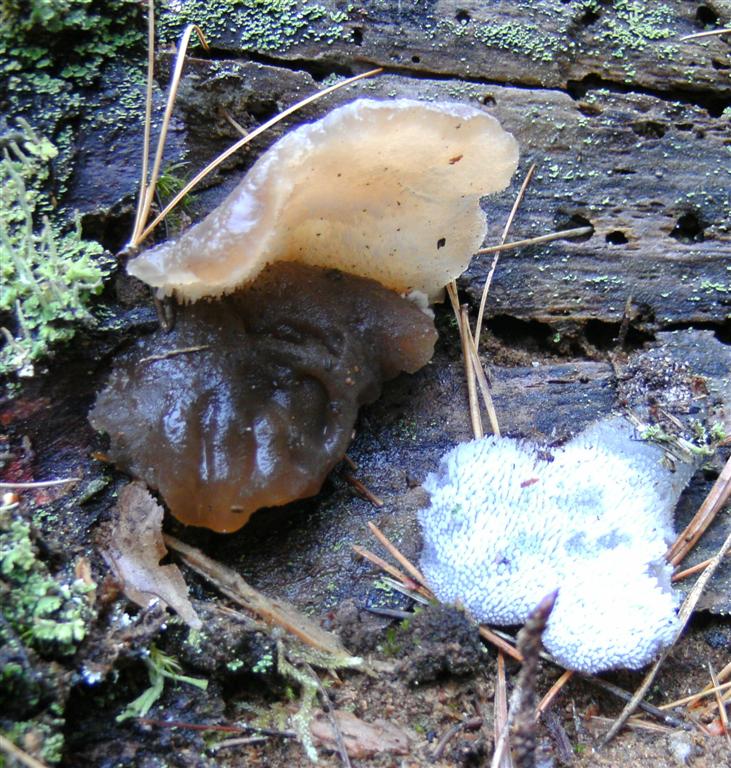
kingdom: Fungi
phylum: Basidiomycota
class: Agaricomycetes
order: Auriculariales
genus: Pseudohydnum
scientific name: Pseudohydnum gelatinosum
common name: bævretand
